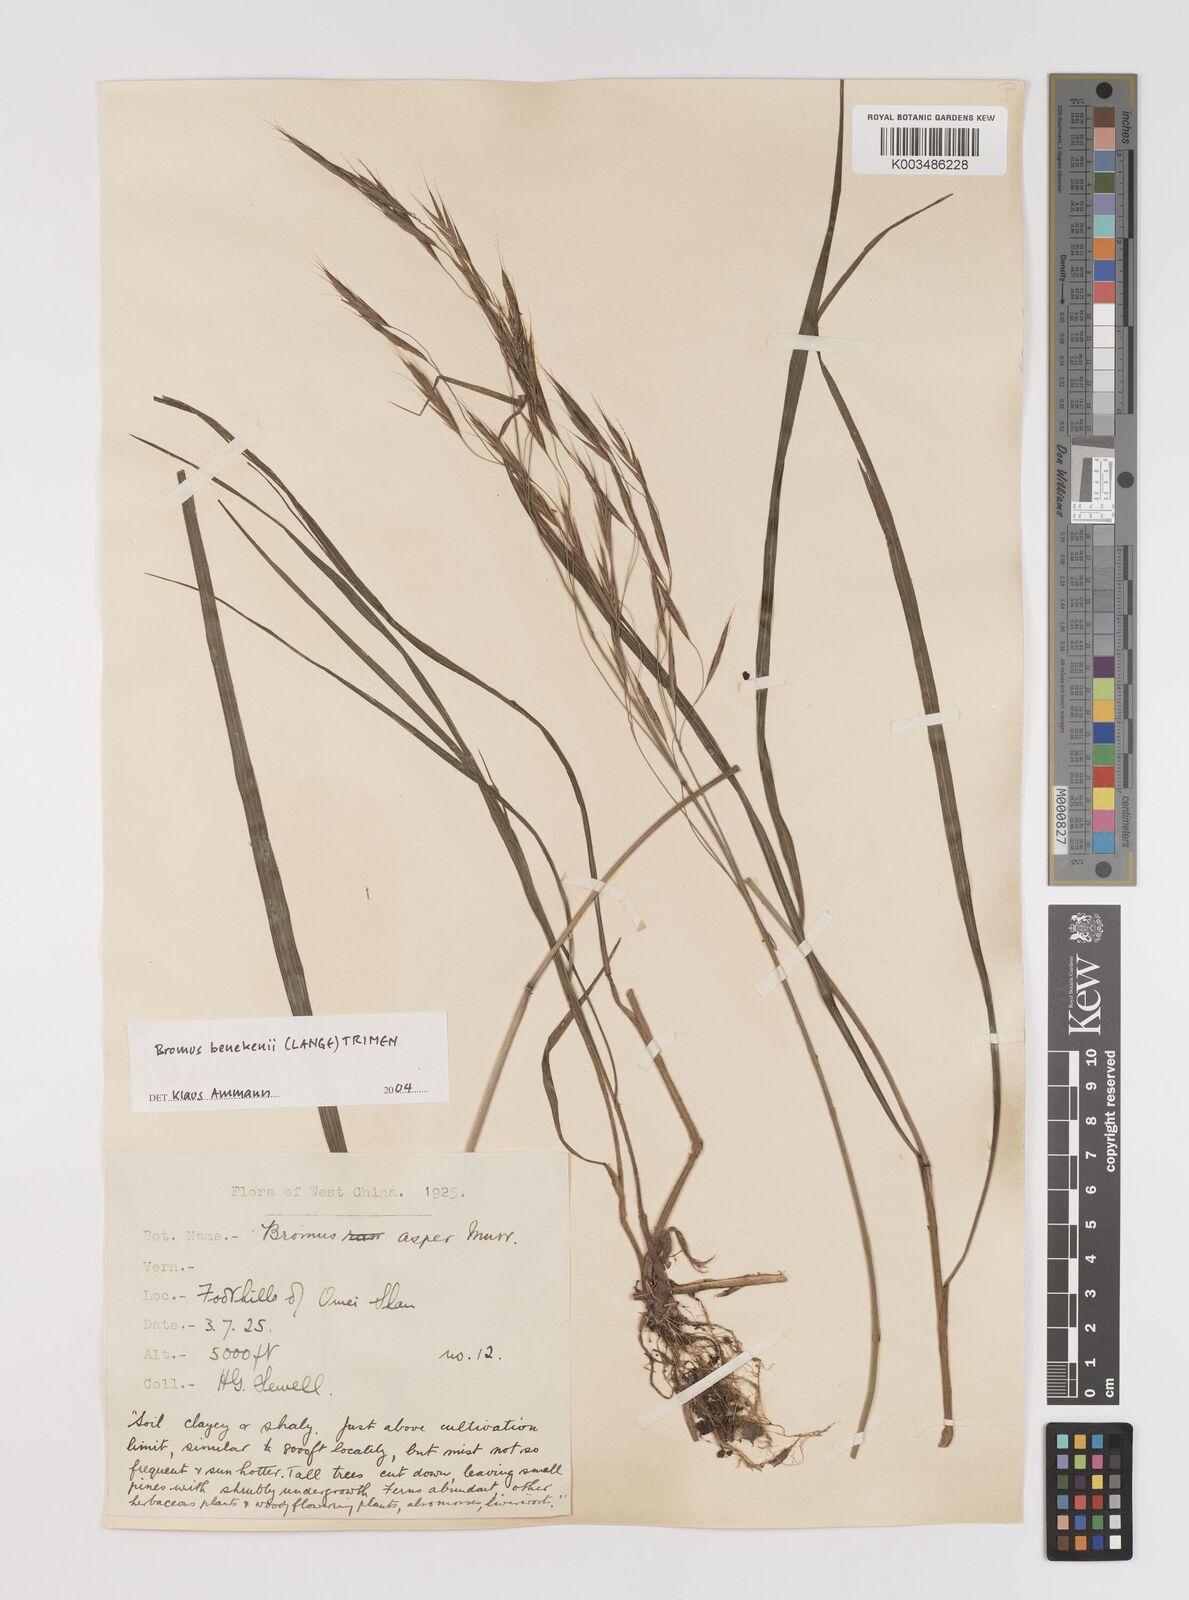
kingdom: Plantae
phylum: Tracheophyta
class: Liliopsida
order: Poales
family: Poaceae
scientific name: Poaceae
